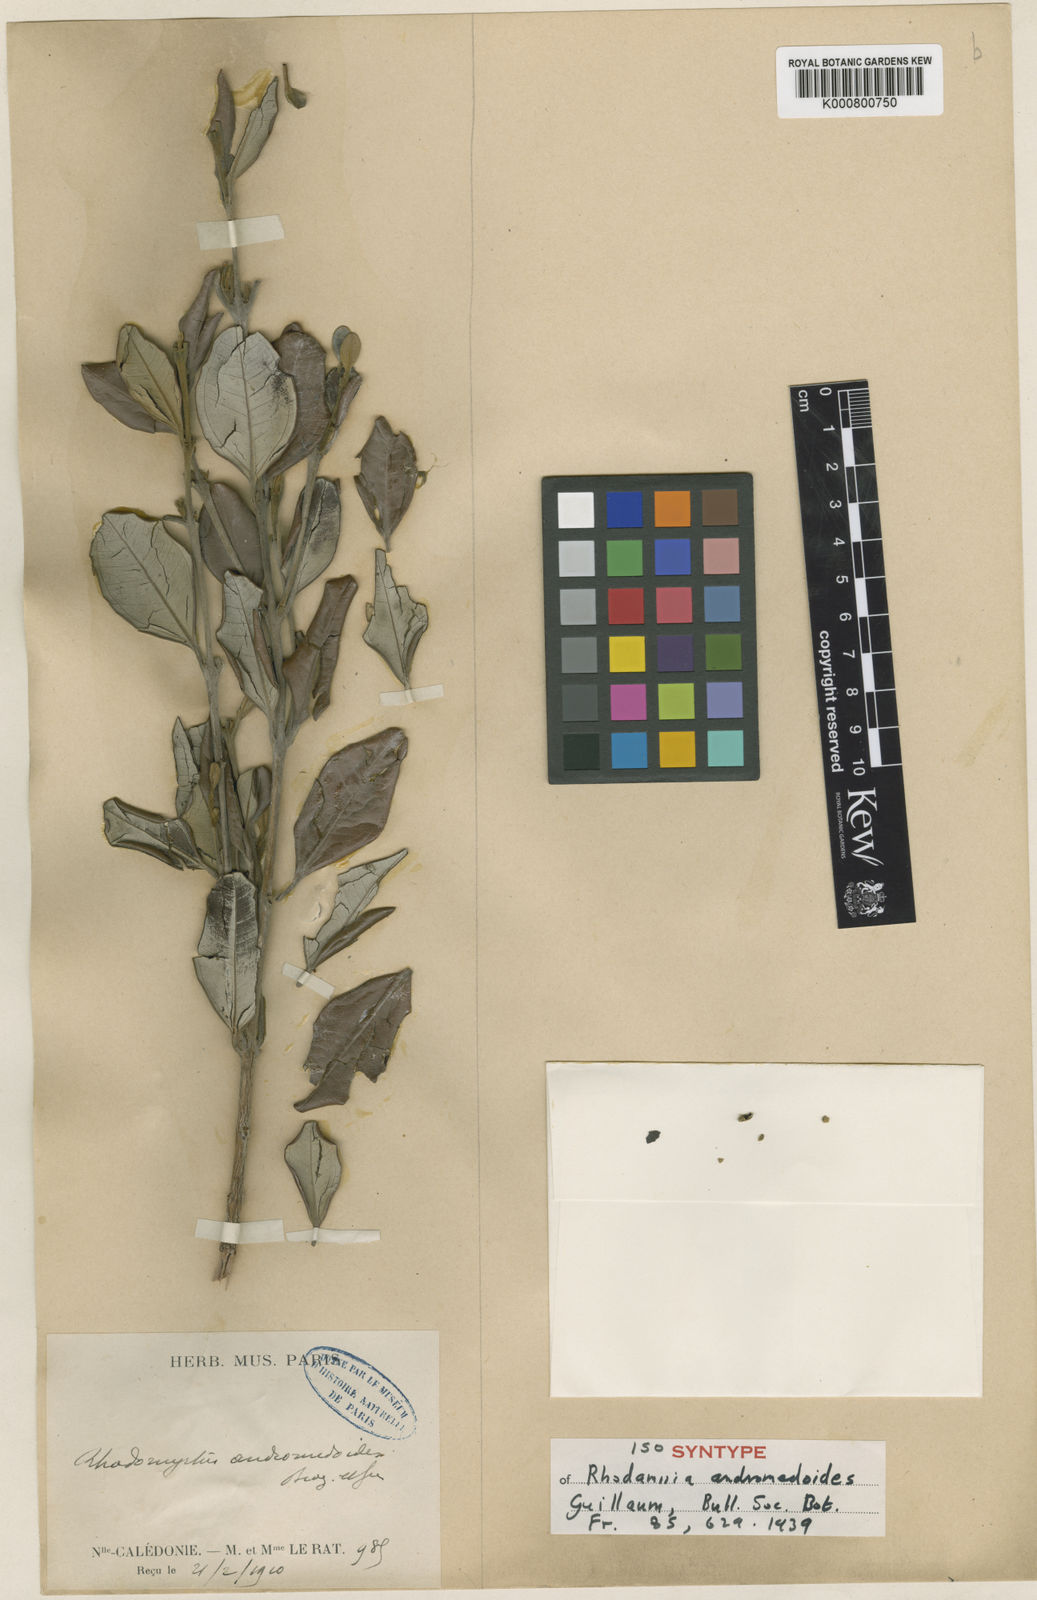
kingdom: Plantae
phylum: Tracheophyta
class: Magnoliopsida
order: Myrtales
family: Myrtaceae
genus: Rhodamnia
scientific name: Rhodamnia andromedoides
